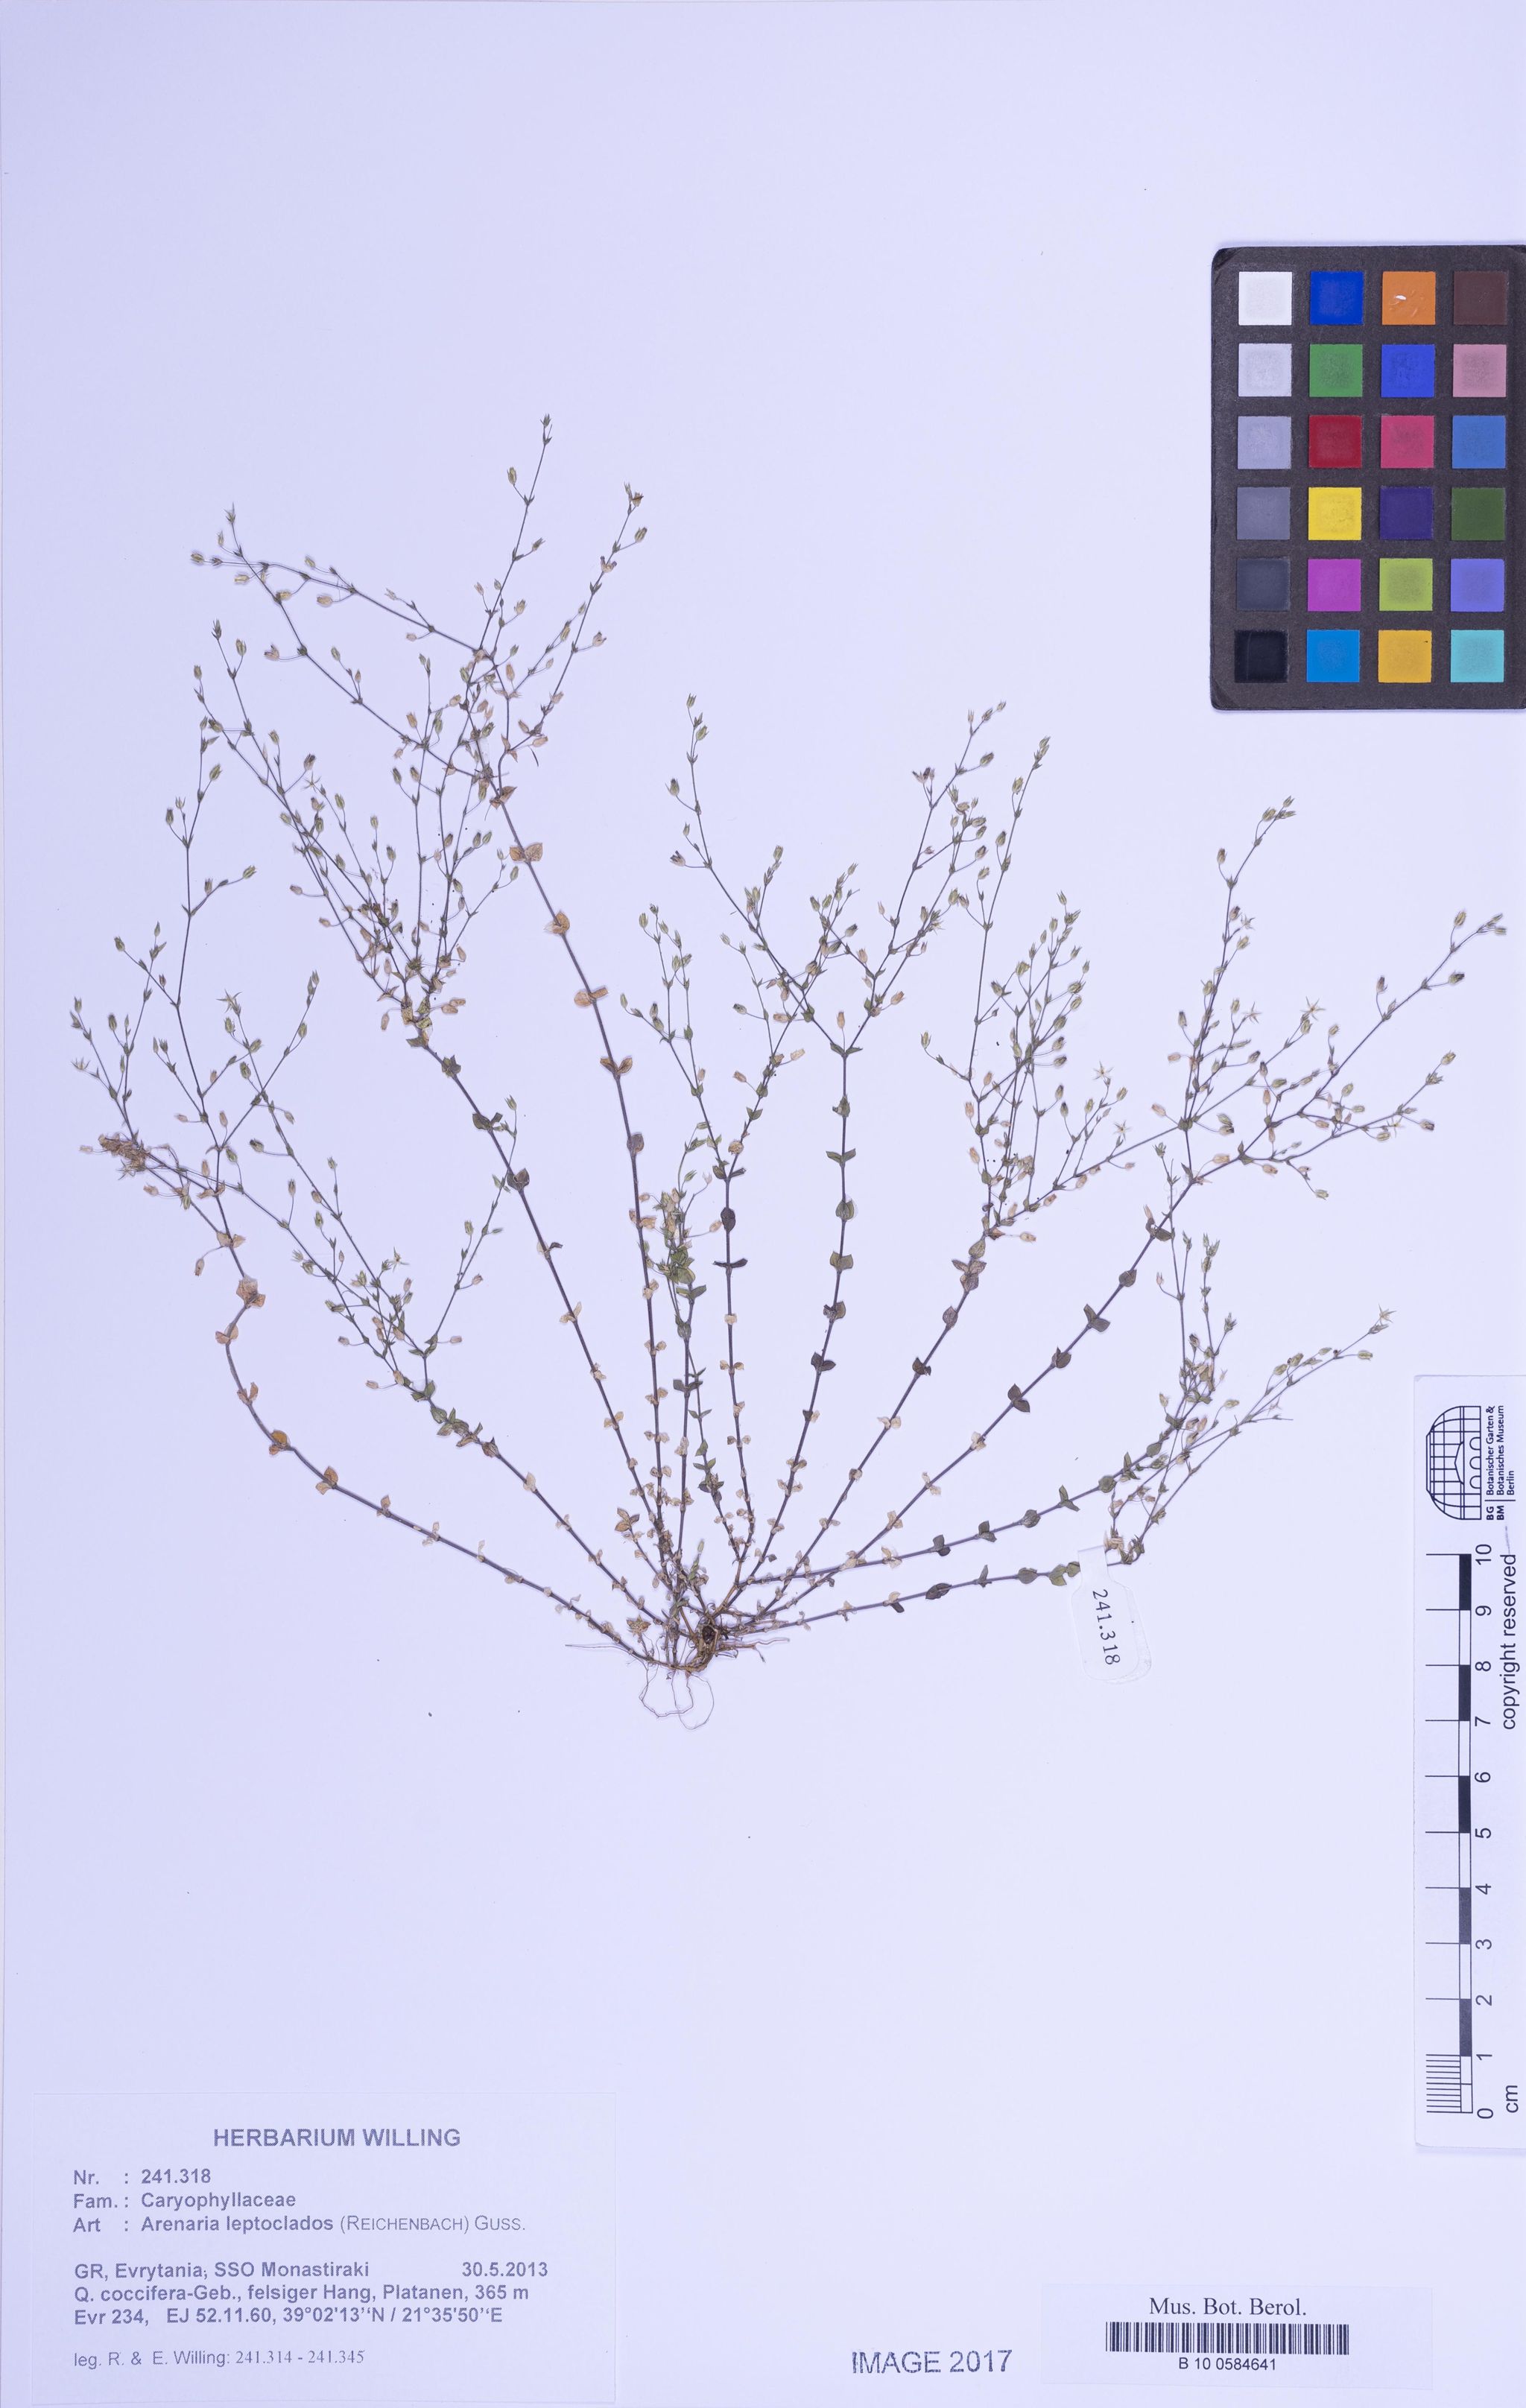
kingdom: Plantae
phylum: Tracheophyta
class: Magnoliopsida
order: Caryophyllales
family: Caryophyllaceae
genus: Arenaria
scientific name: Arenaria leptoclados
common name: Thyme-leaved sandwort
